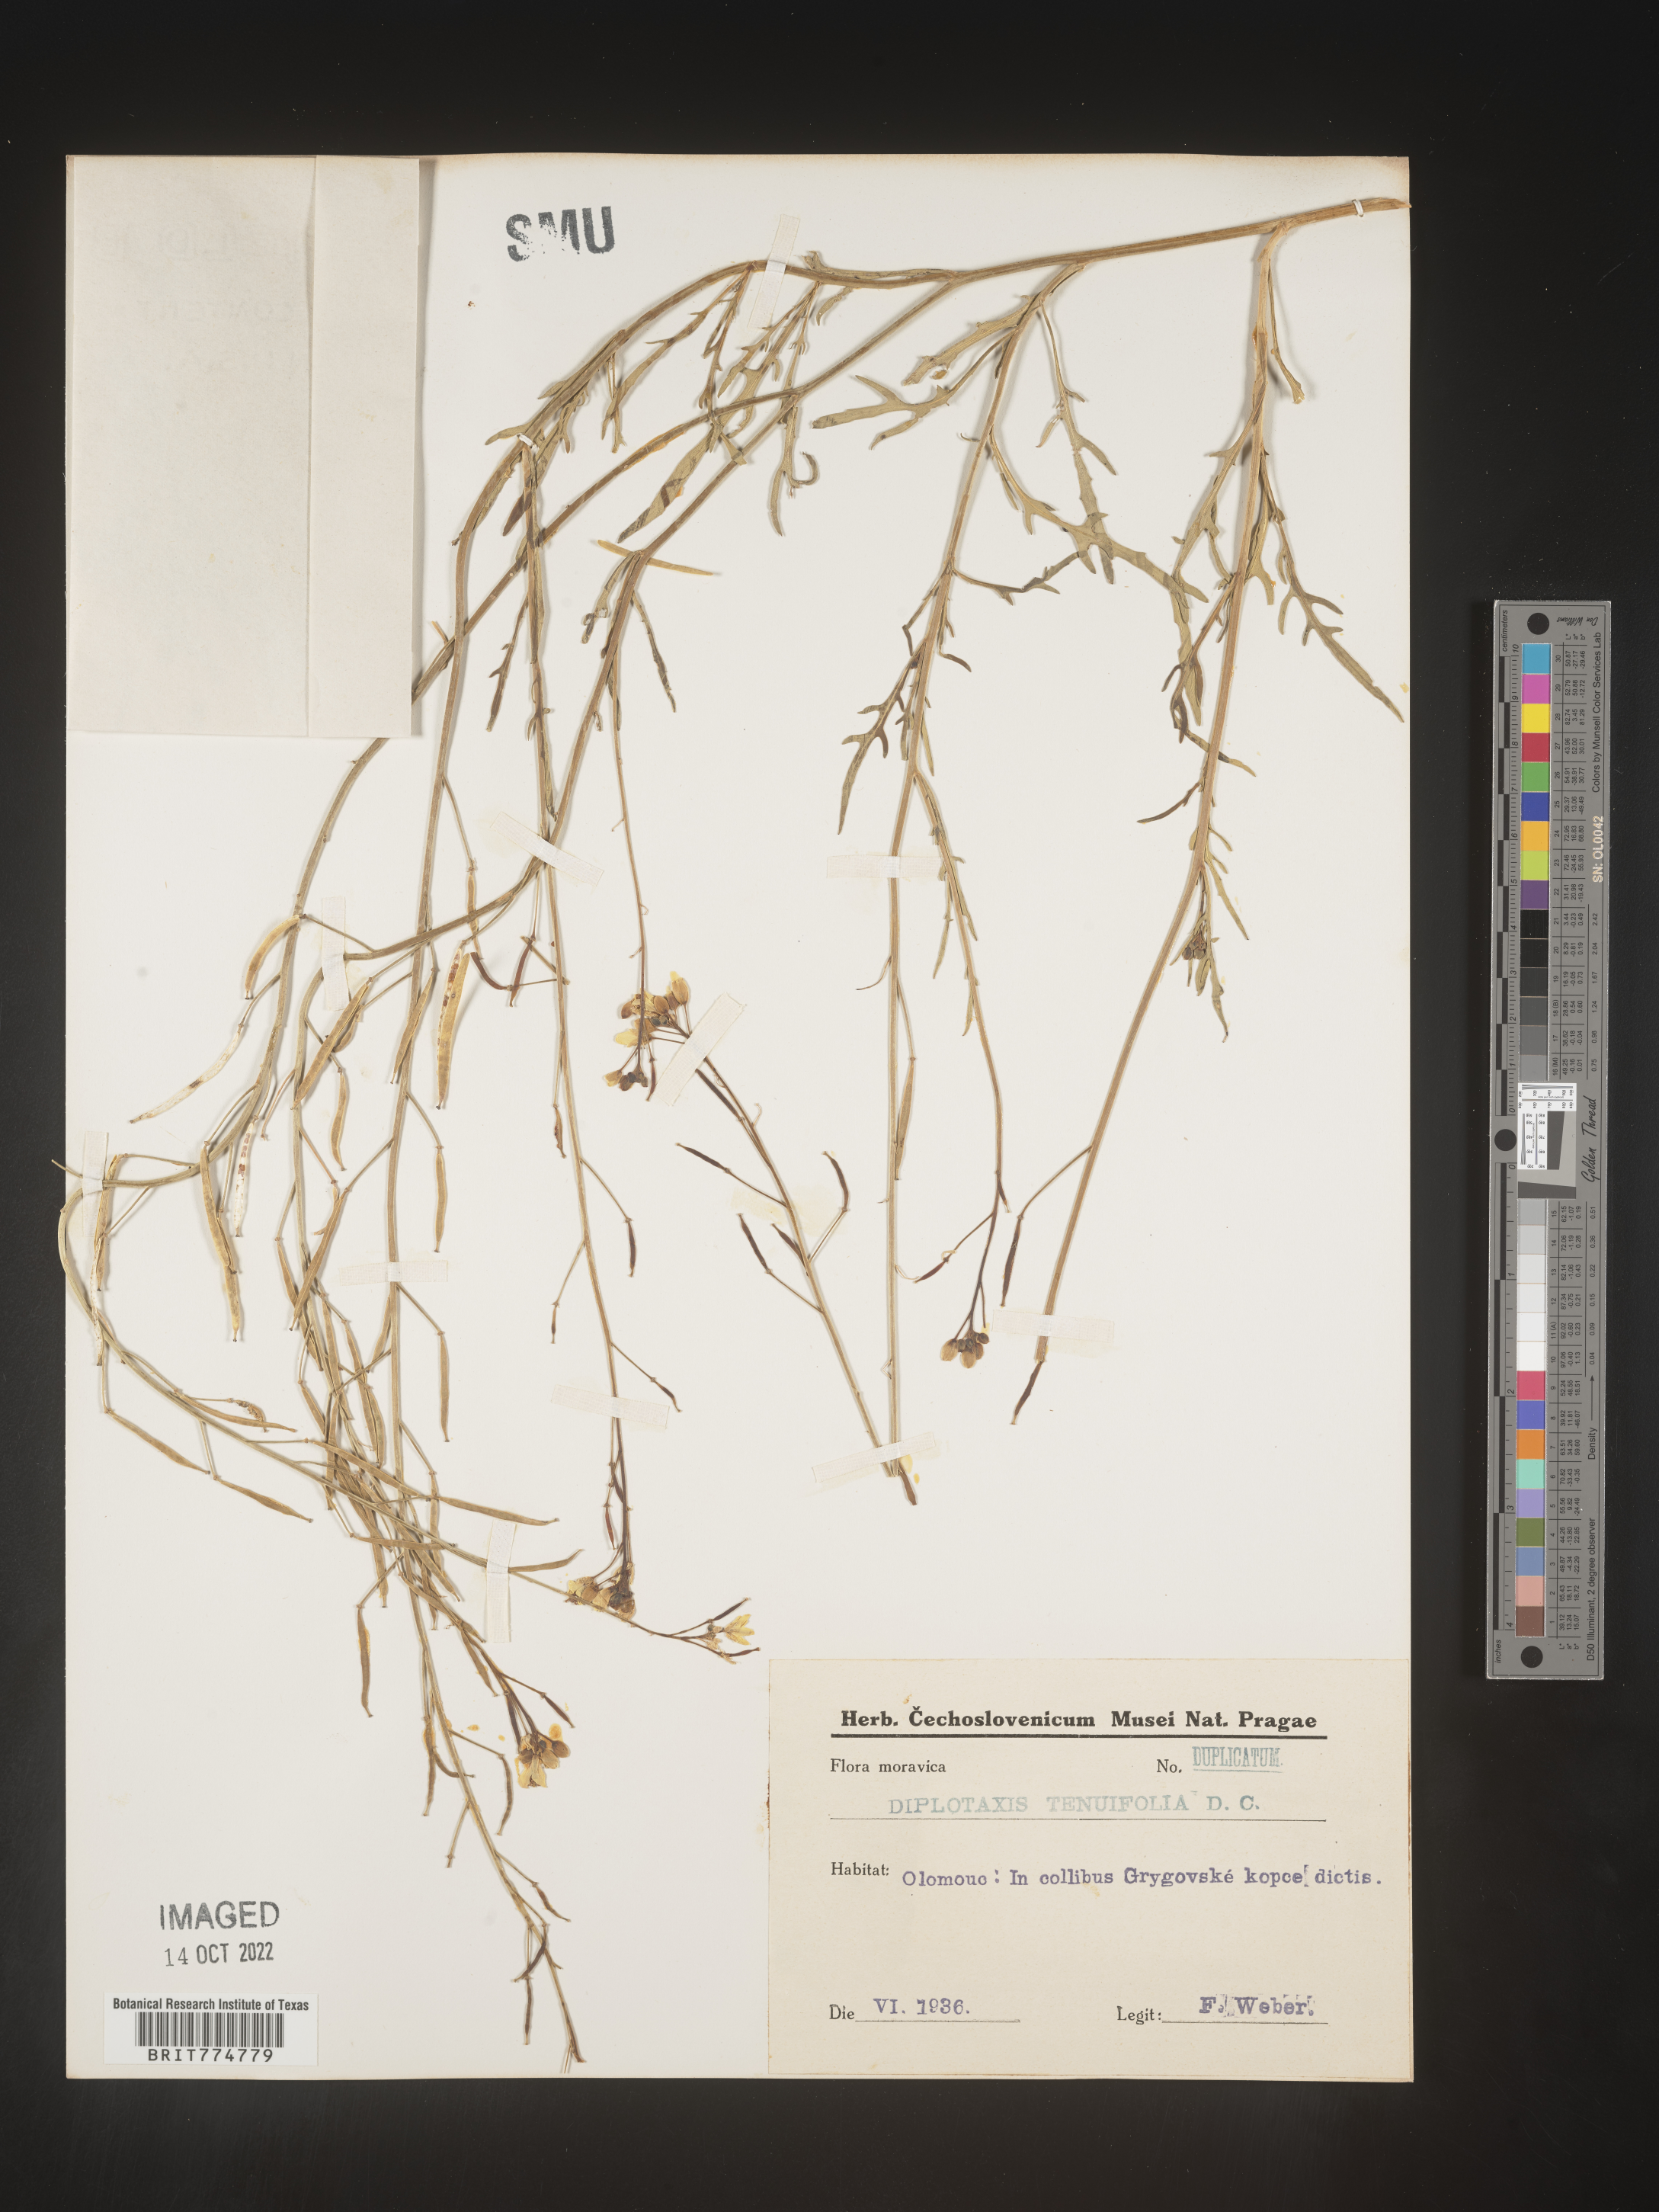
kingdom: Plantae
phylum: Tracheophyta
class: Magnoliopsida
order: Brassicales
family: Brassicaceae
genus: Diplotaxis
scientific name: Diplotaxis
